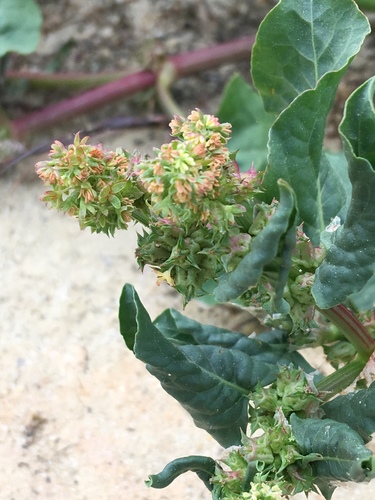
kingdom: Plantae
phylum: Tracheophyta
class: Magnoliopsida
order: Caryophyllales
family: Polygonaceae
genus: Rumex
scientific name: Rumex spinosus
